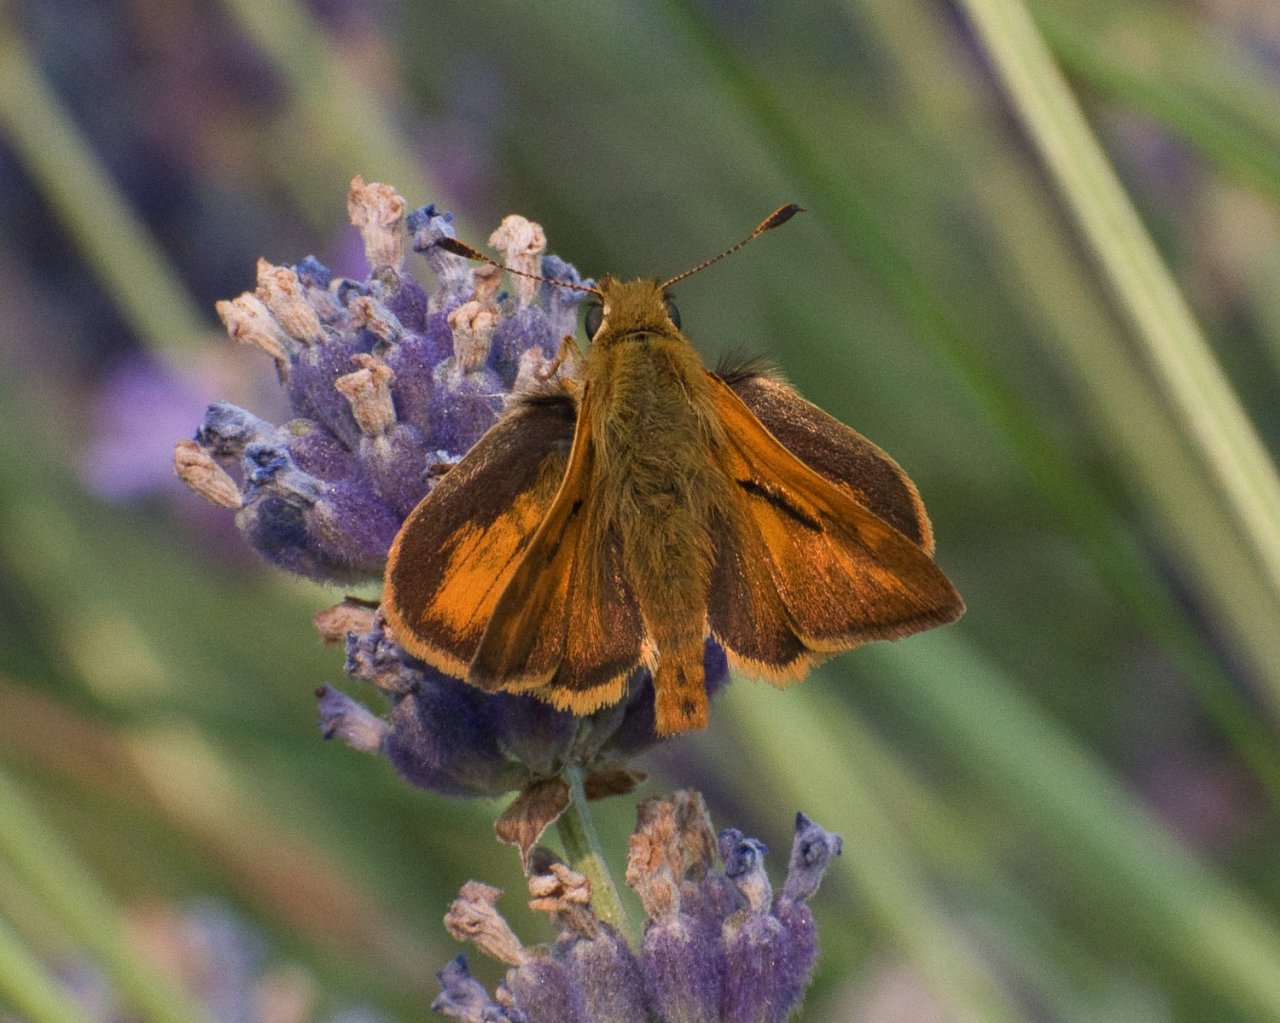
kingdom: Animalia
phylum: Arthropoda
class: Insecta
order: Lepidoptera
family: Hesperiidae
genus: Ochlodes
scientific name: Ochlodes sylvanoides
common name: Woodland Skipper
